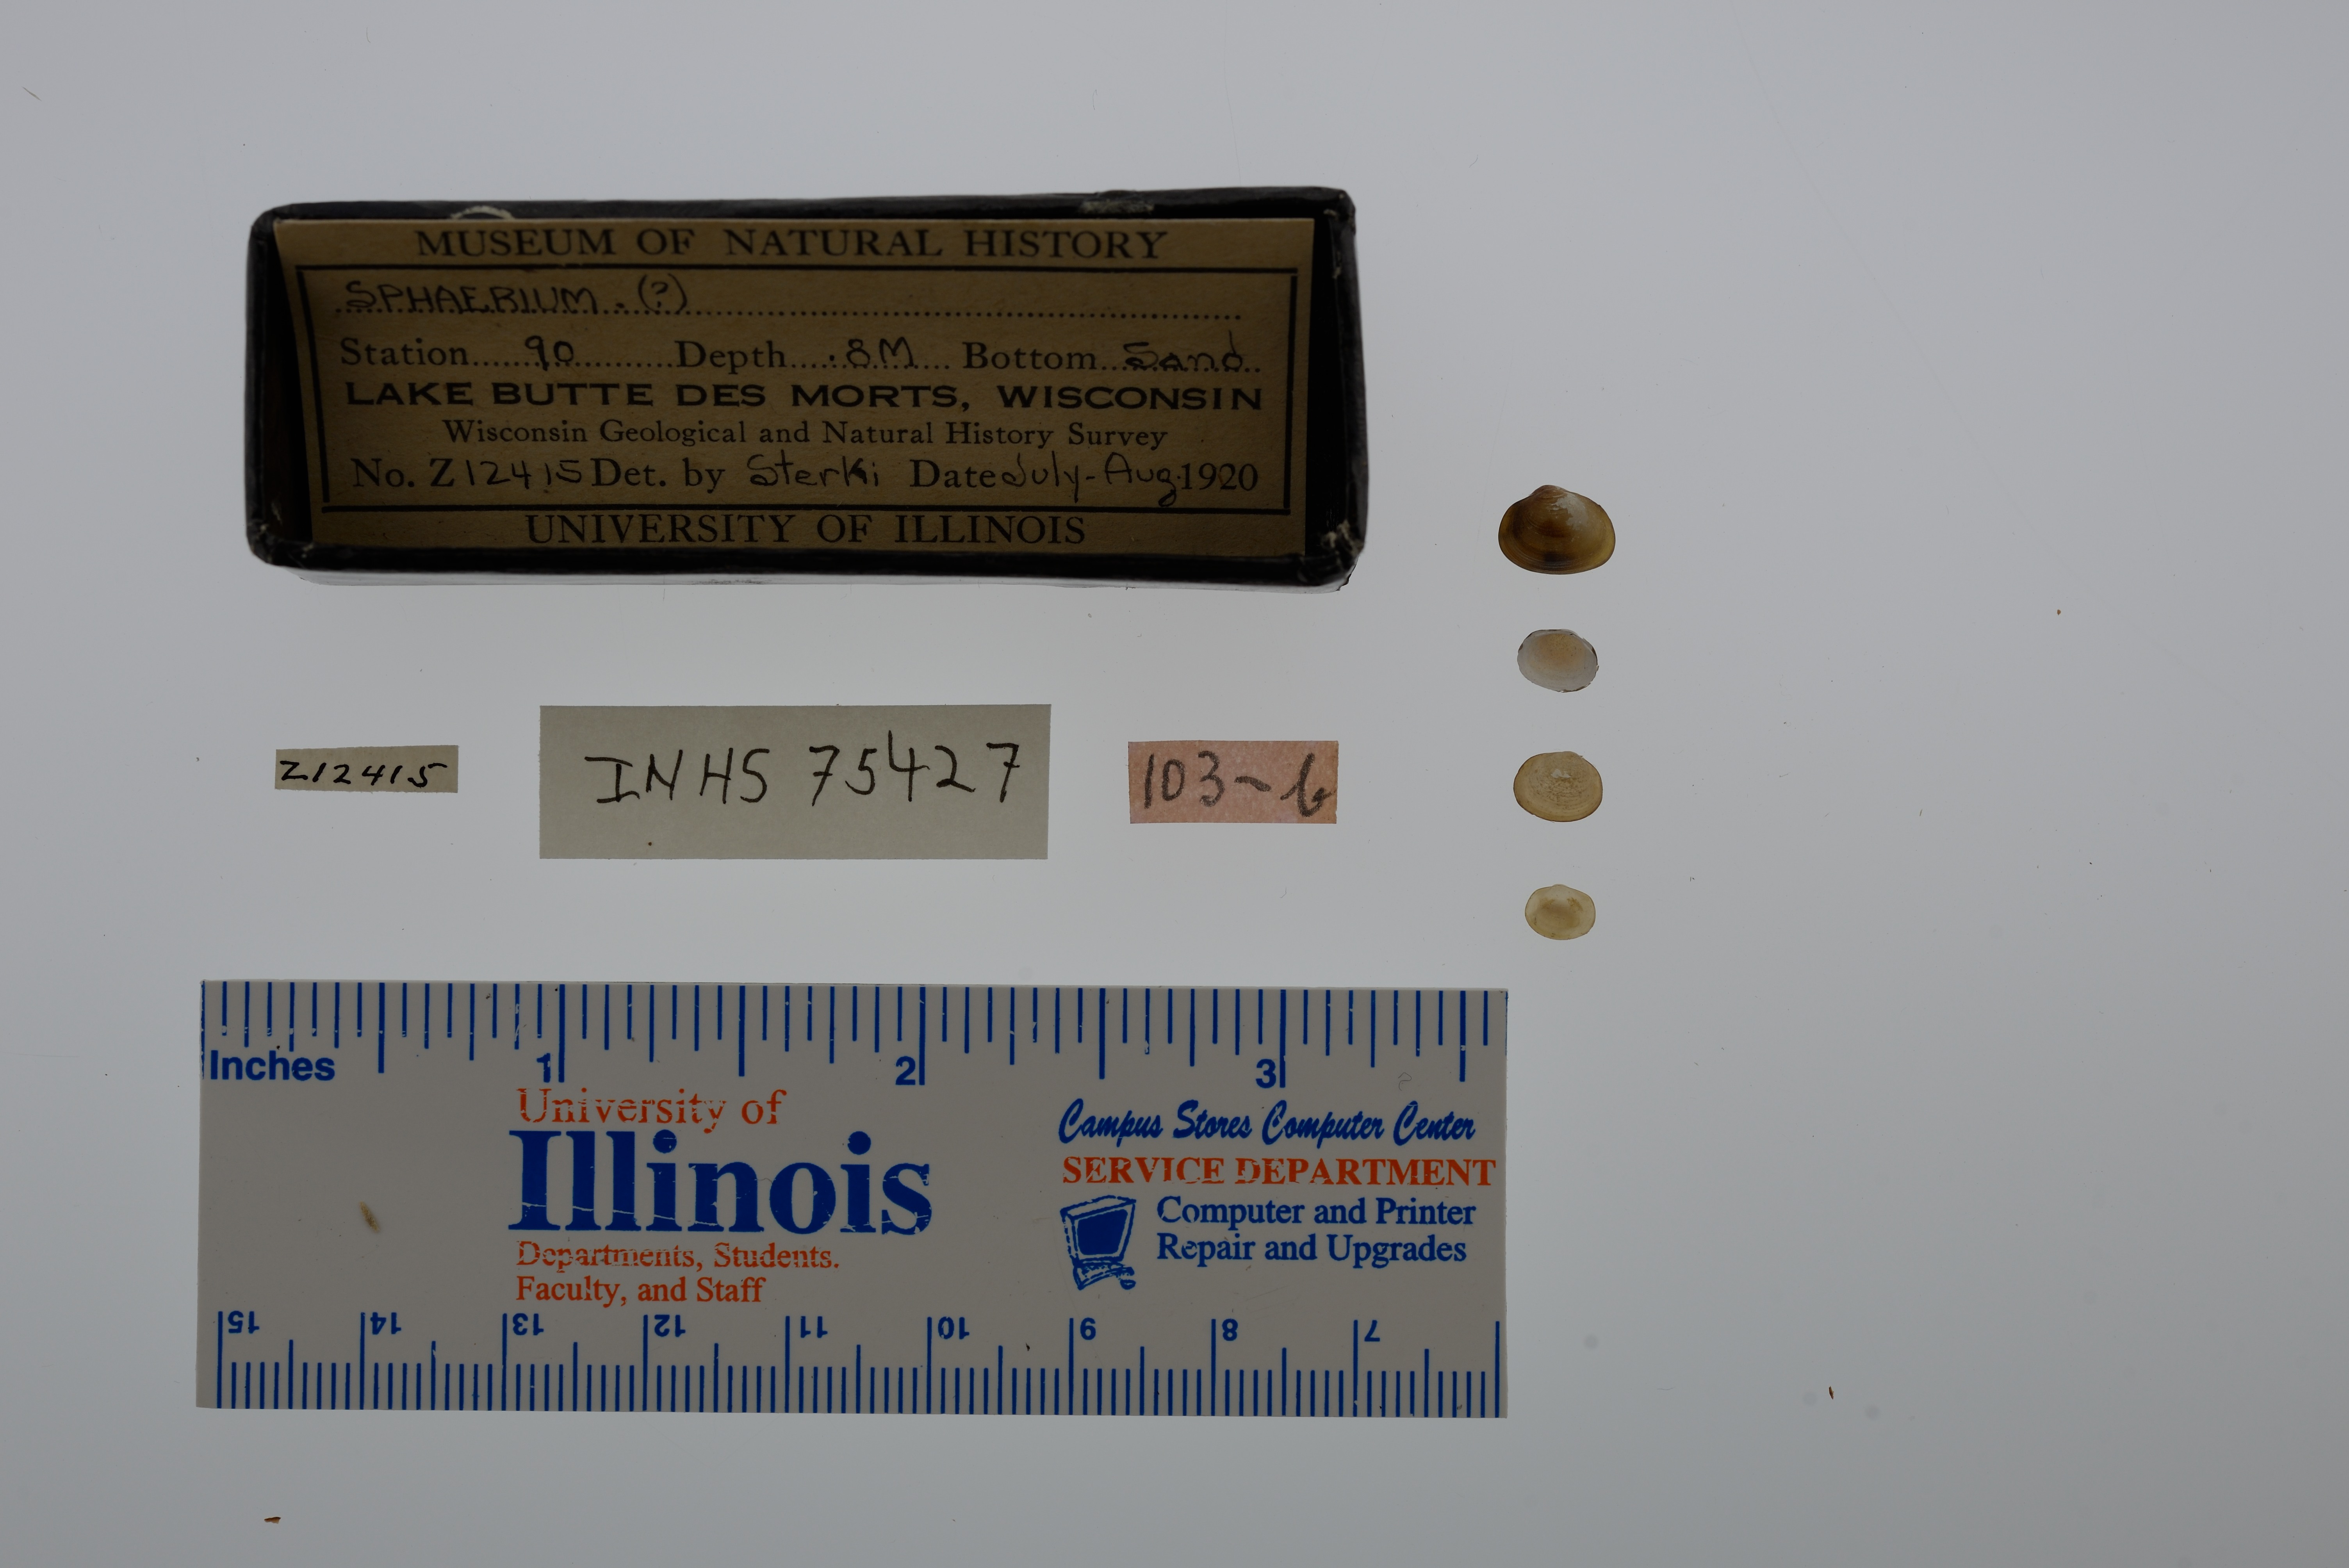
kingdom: Animalia
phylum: Mollusca
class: Bivalvia
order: Sphaeriida
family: Sphaeriidae
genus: Sphaerium
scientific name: Sphaerium
